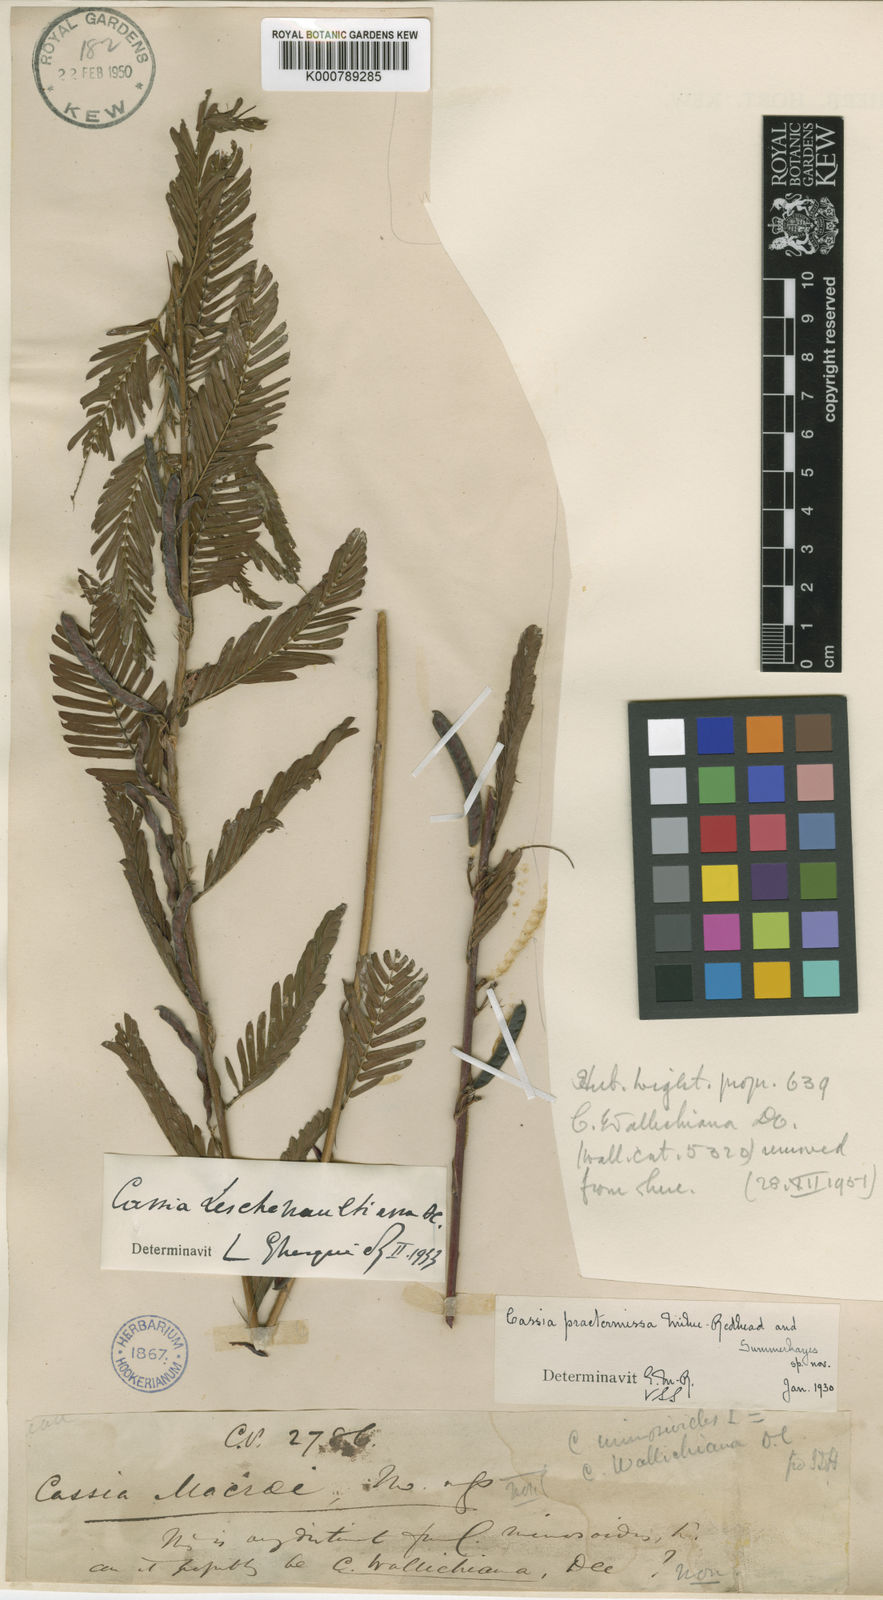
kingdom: Plantae
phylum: Tracheophyta
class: Magnoliopsida
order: Fabales
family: Fabaceae
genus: Cassia
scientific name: Cassia
